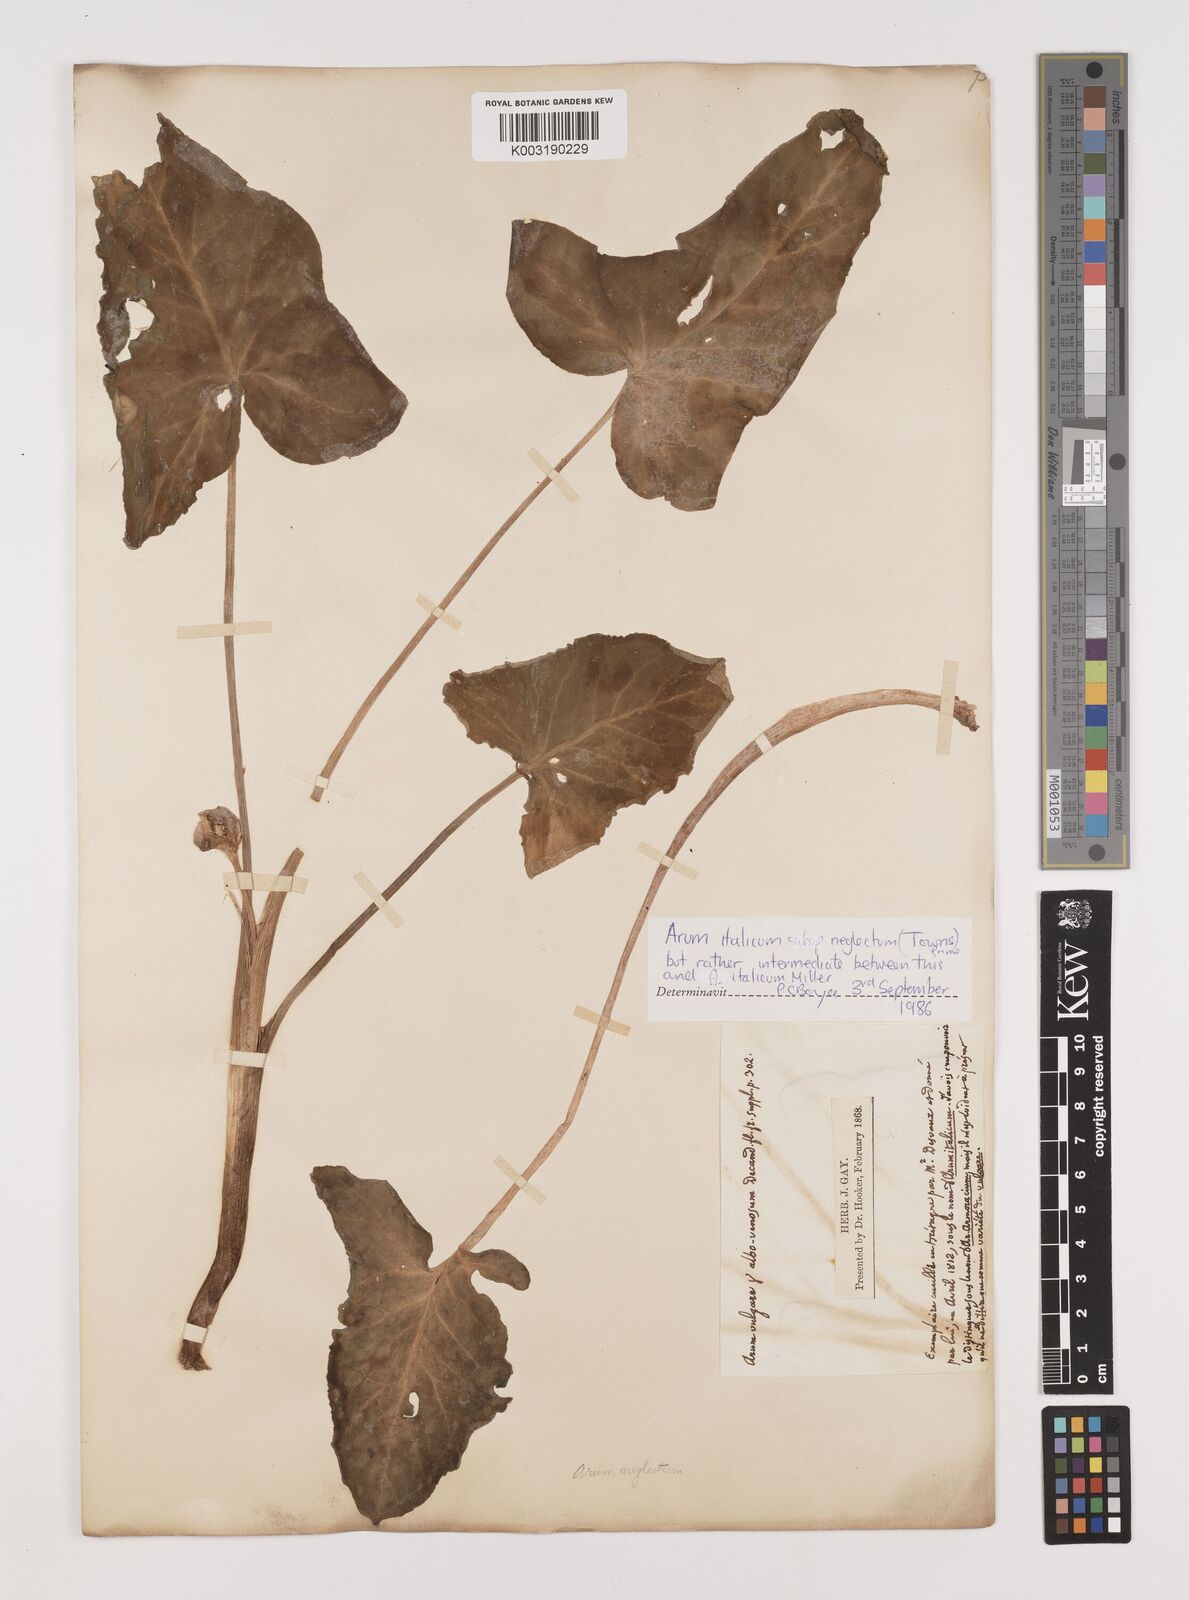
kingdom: Plantae
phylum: Tracheophyta
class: Liliopsida
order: Alismatales
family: Araceae
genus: Arum
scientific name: Arum italicum
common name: Italian lords-and-ladies
